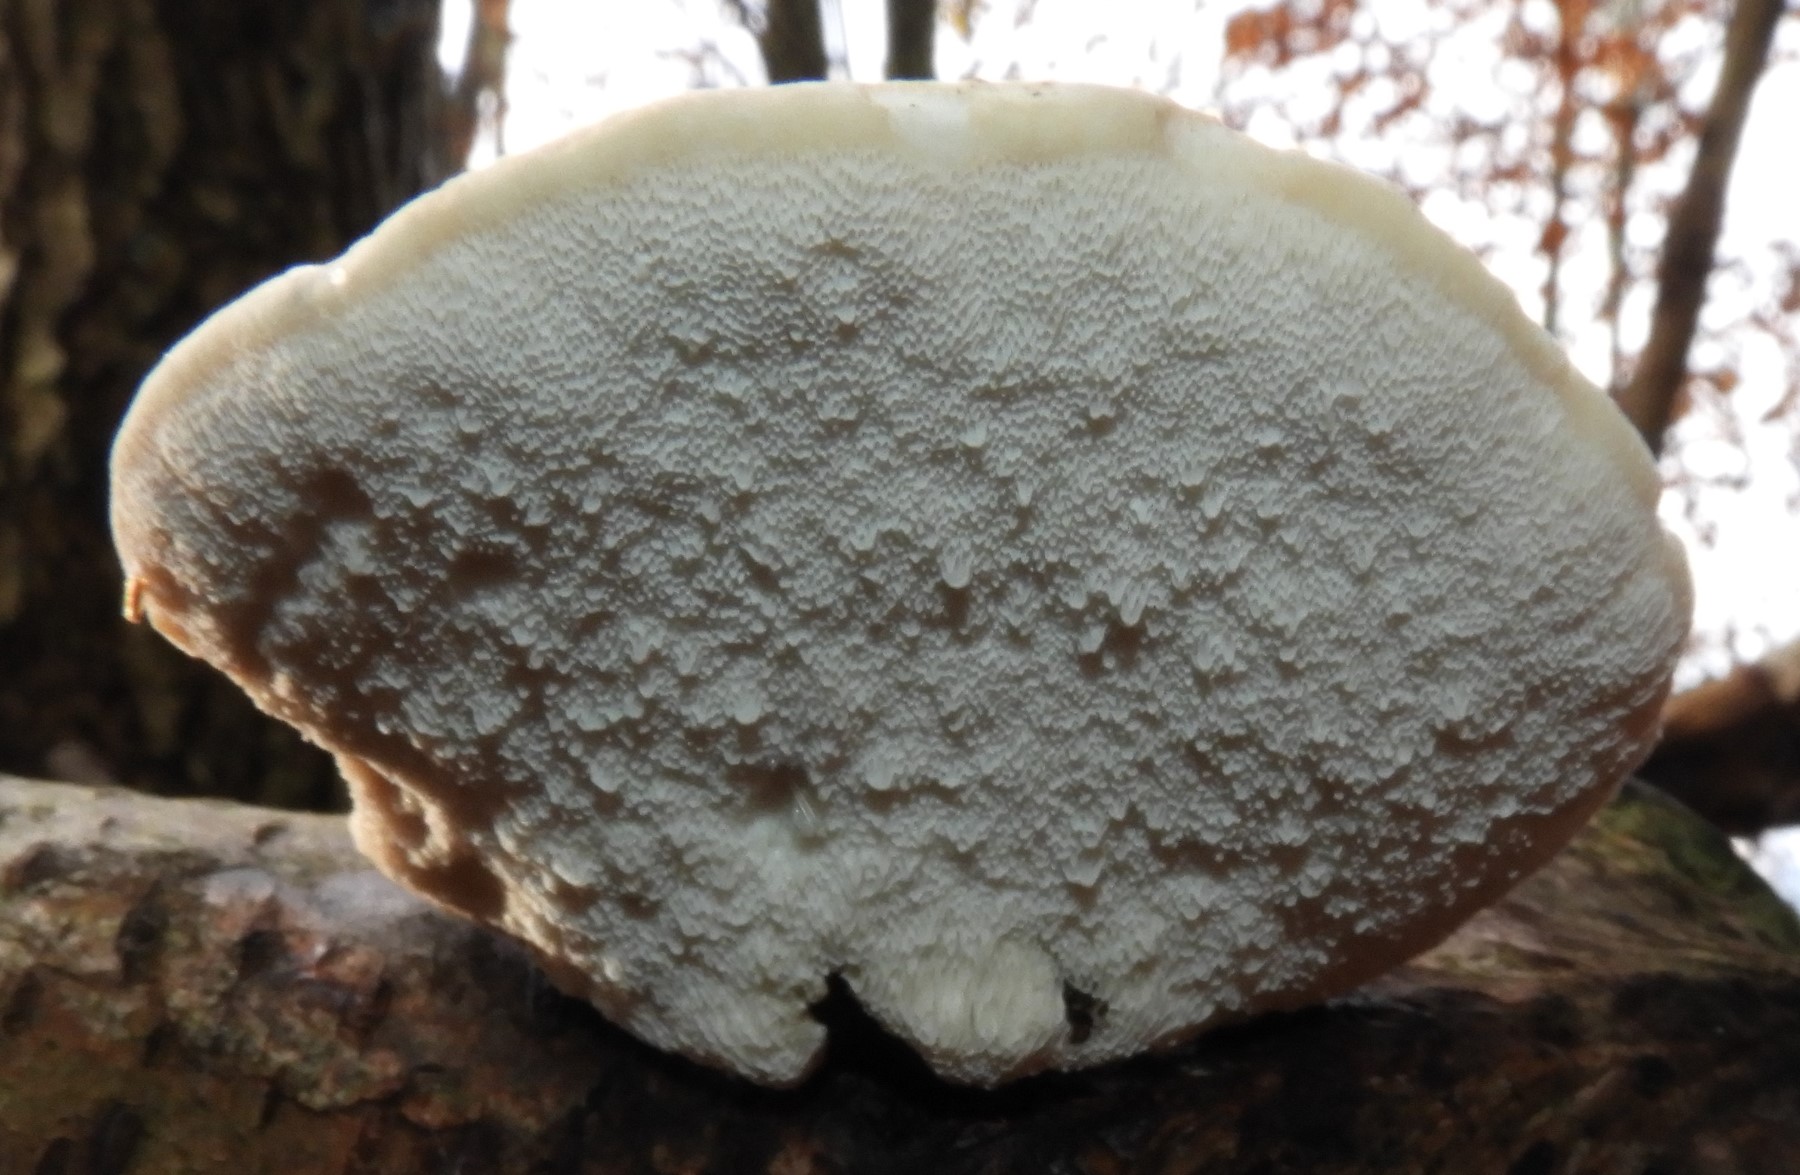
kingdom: Fungi
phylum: Basidiomycota
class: Agaricomycetes
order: Polyporales
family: Fomitopsidaceae
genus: Fomitopsis
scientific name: Fomitopsis betulina
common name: birkeporesvamp
